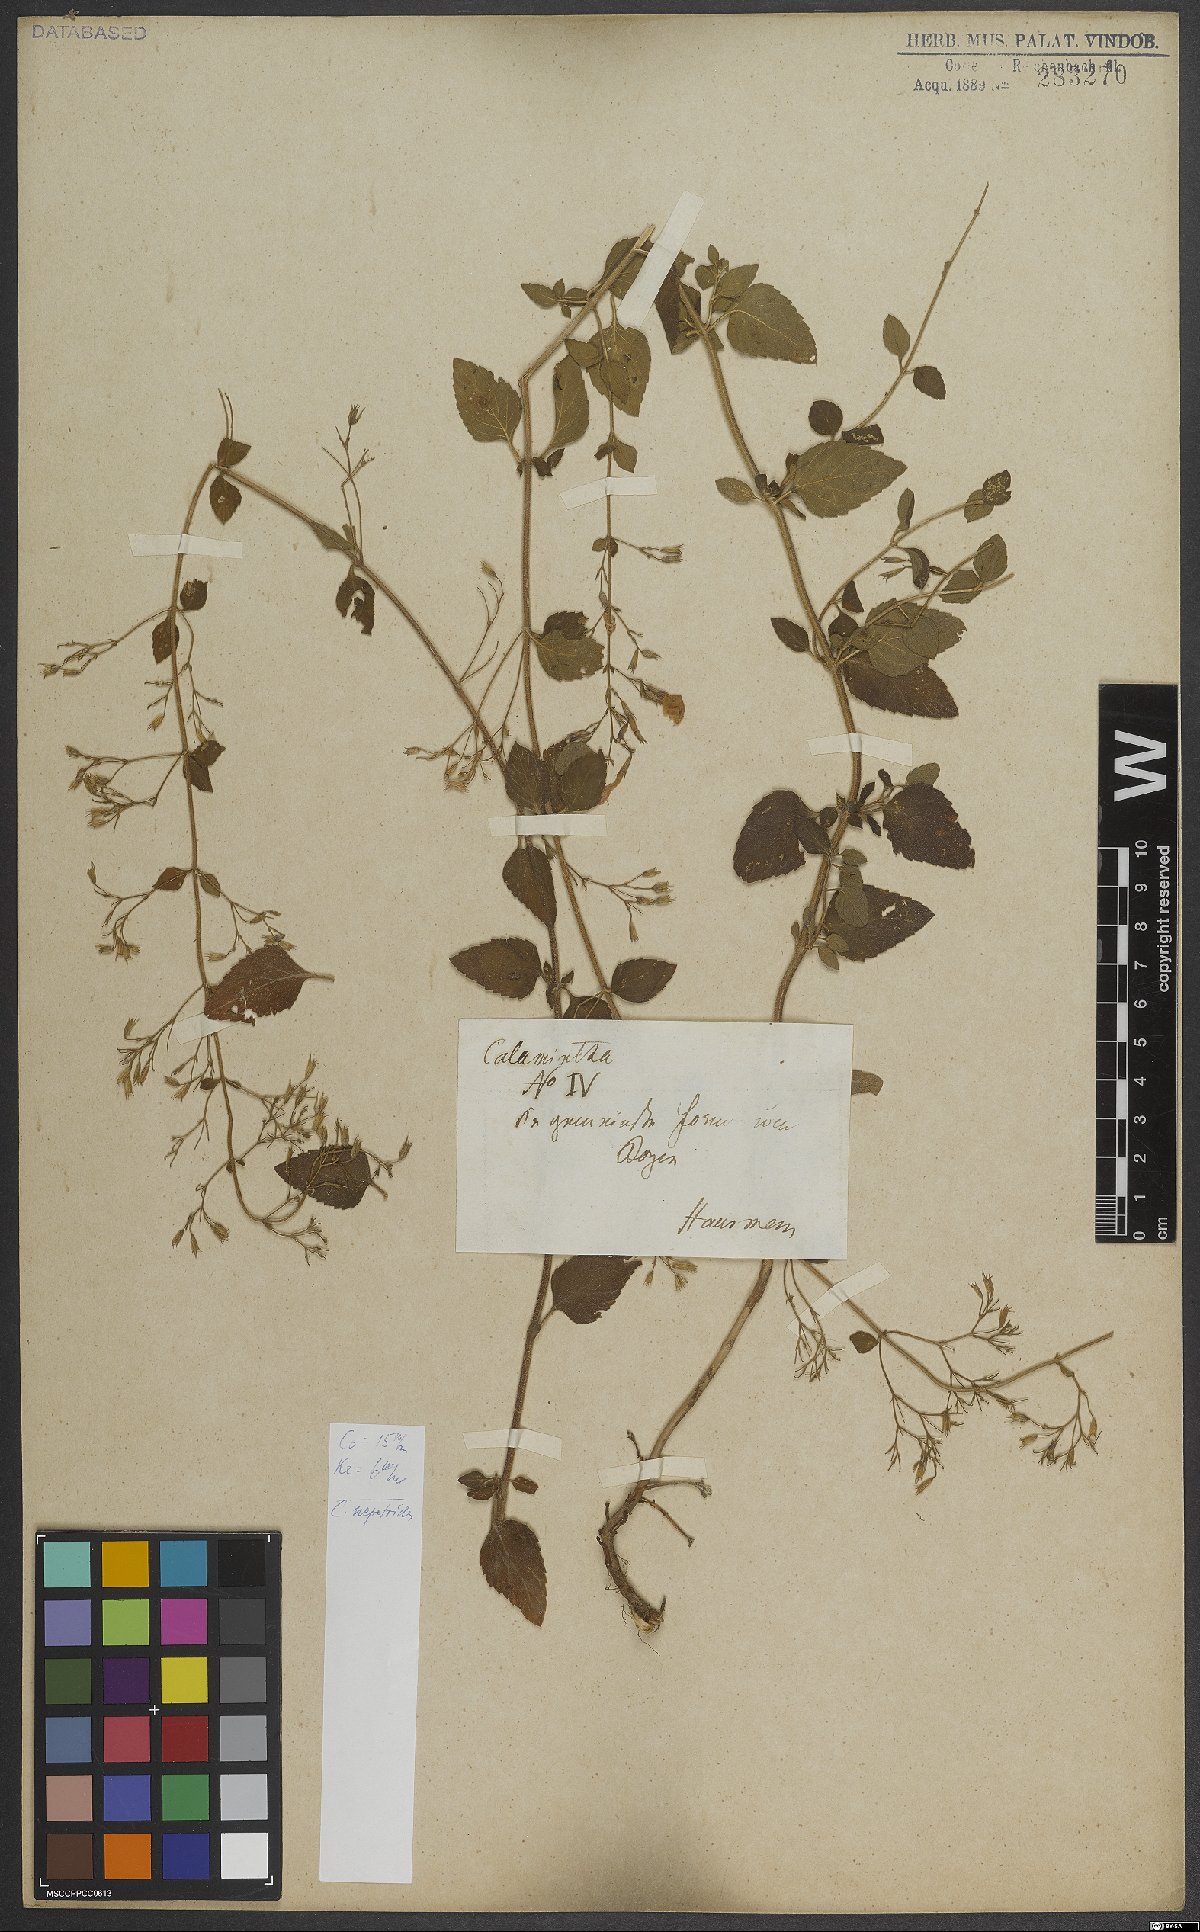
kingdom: Plantae
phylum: Tracheophyta
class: Magnoliopsida
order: Lamiales
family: Lamiaceae
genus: Clinopodium
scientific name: Clinopodium nepeta
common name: Lesser calamint
